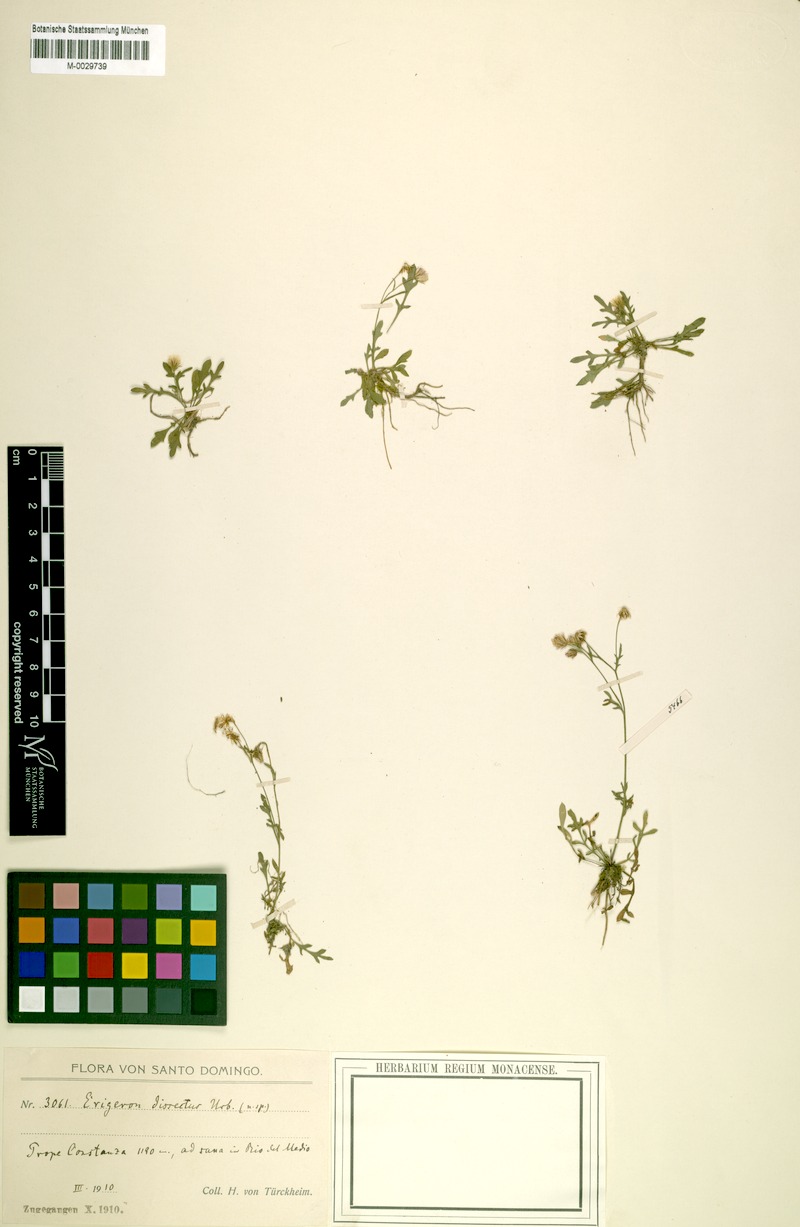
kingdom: Plantae
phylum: Tracheophyta
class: Magnoliopsida
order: Asterales
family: Asteraceae
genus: Erigeron
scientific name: Erigeron dissectus
